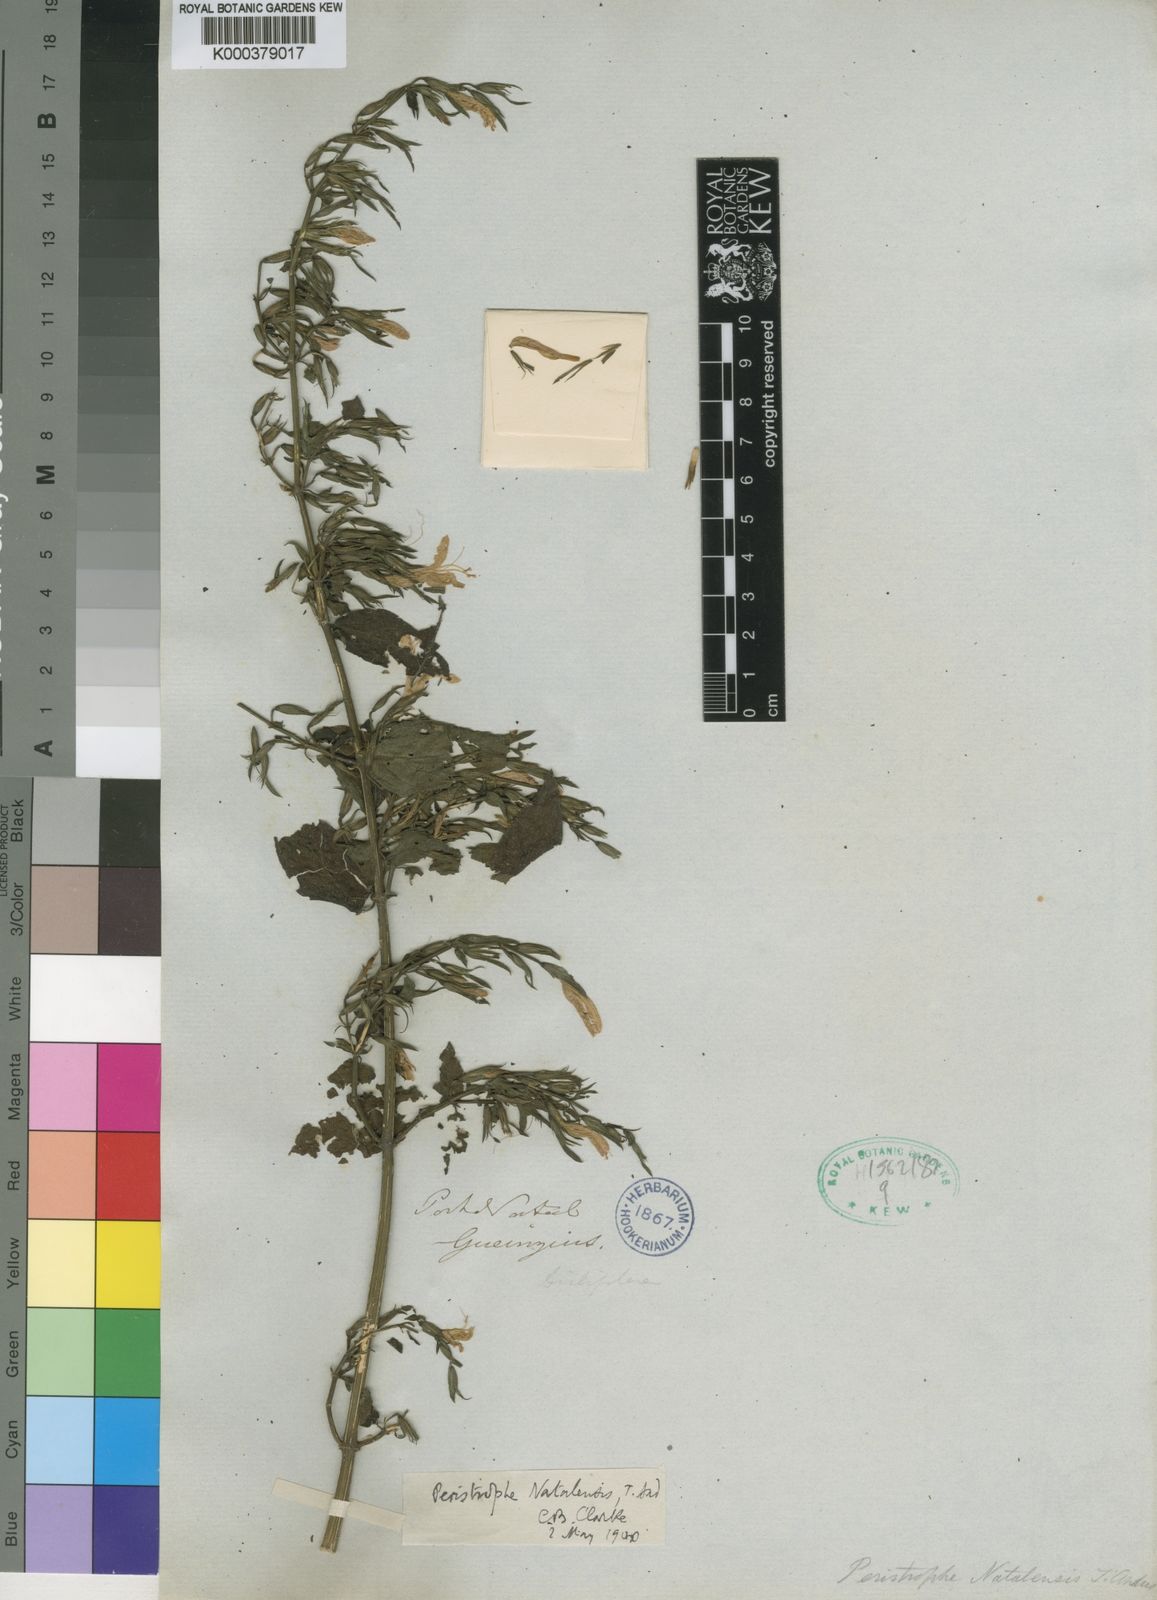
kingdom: Plantae
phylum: Tracheophyta
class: Magnoliopsida
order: Lamiales
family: Acanthaceae
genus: Dicliptera
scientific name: Dicliptera cernua
